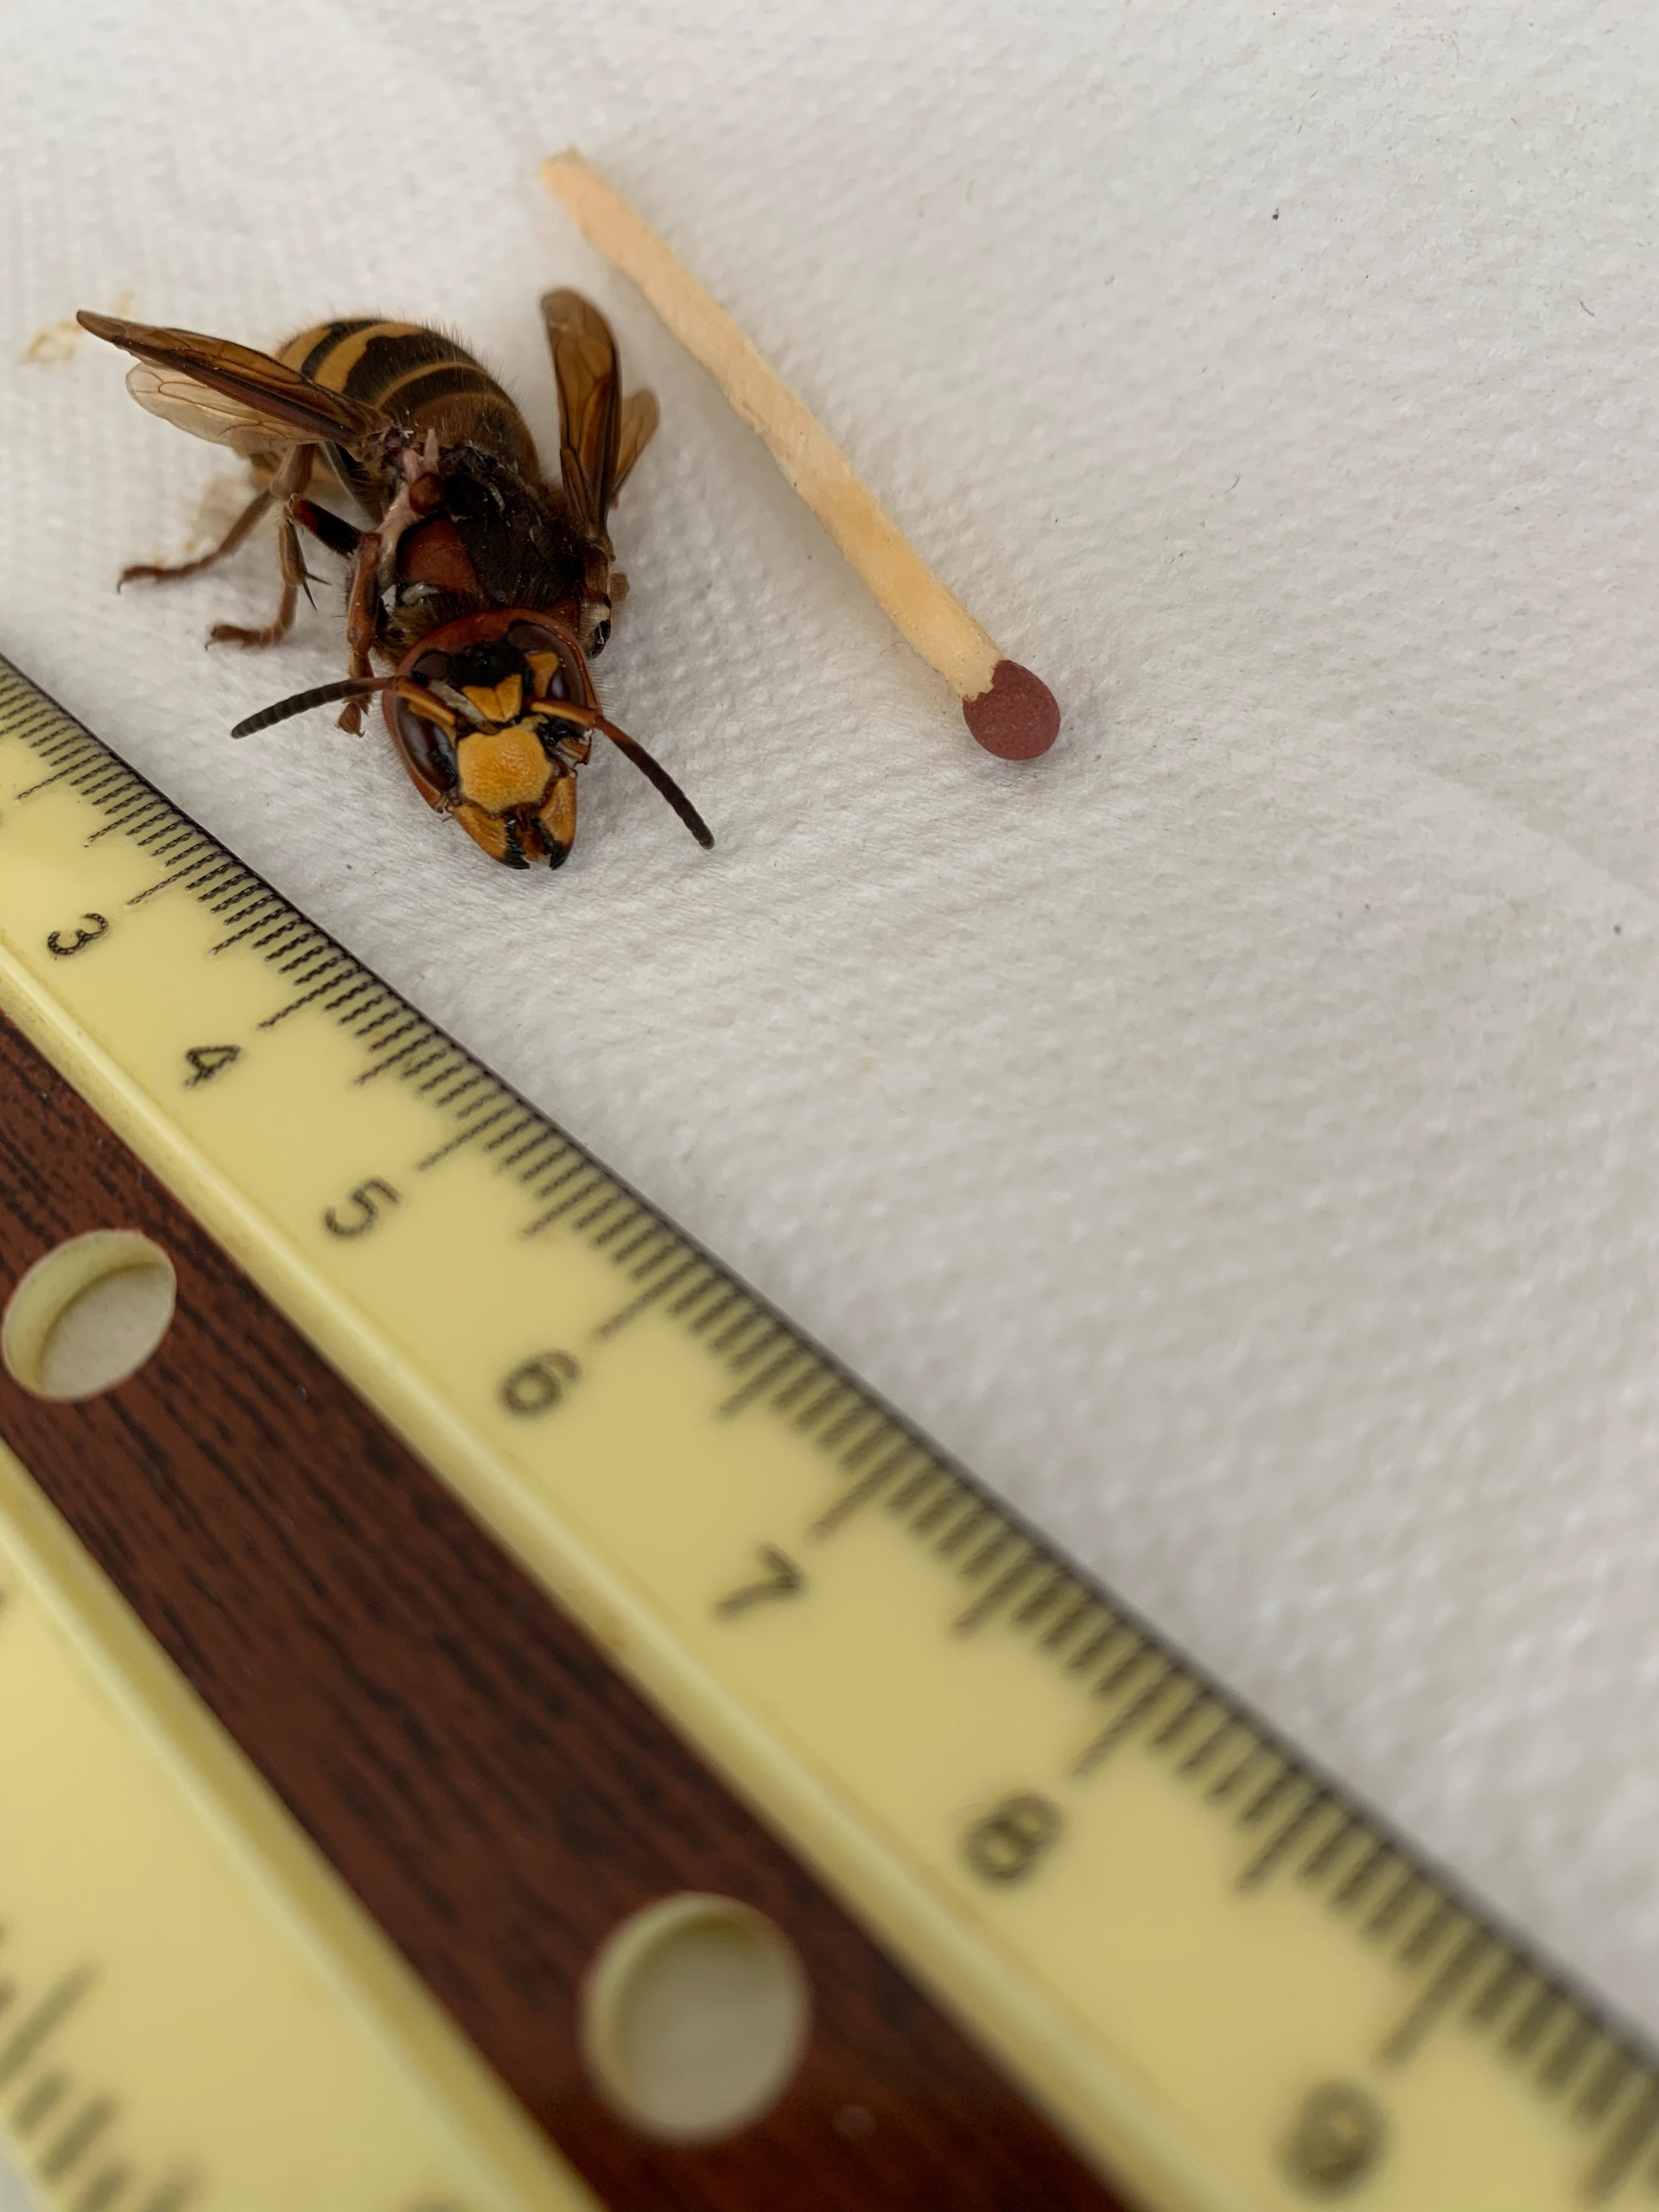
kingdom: Animalia
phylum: Arthropoda
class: Insecta
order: Hymenoptera
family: Vespidae
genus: Vespa
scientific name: Vespa crabro
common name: Stor gedehams
